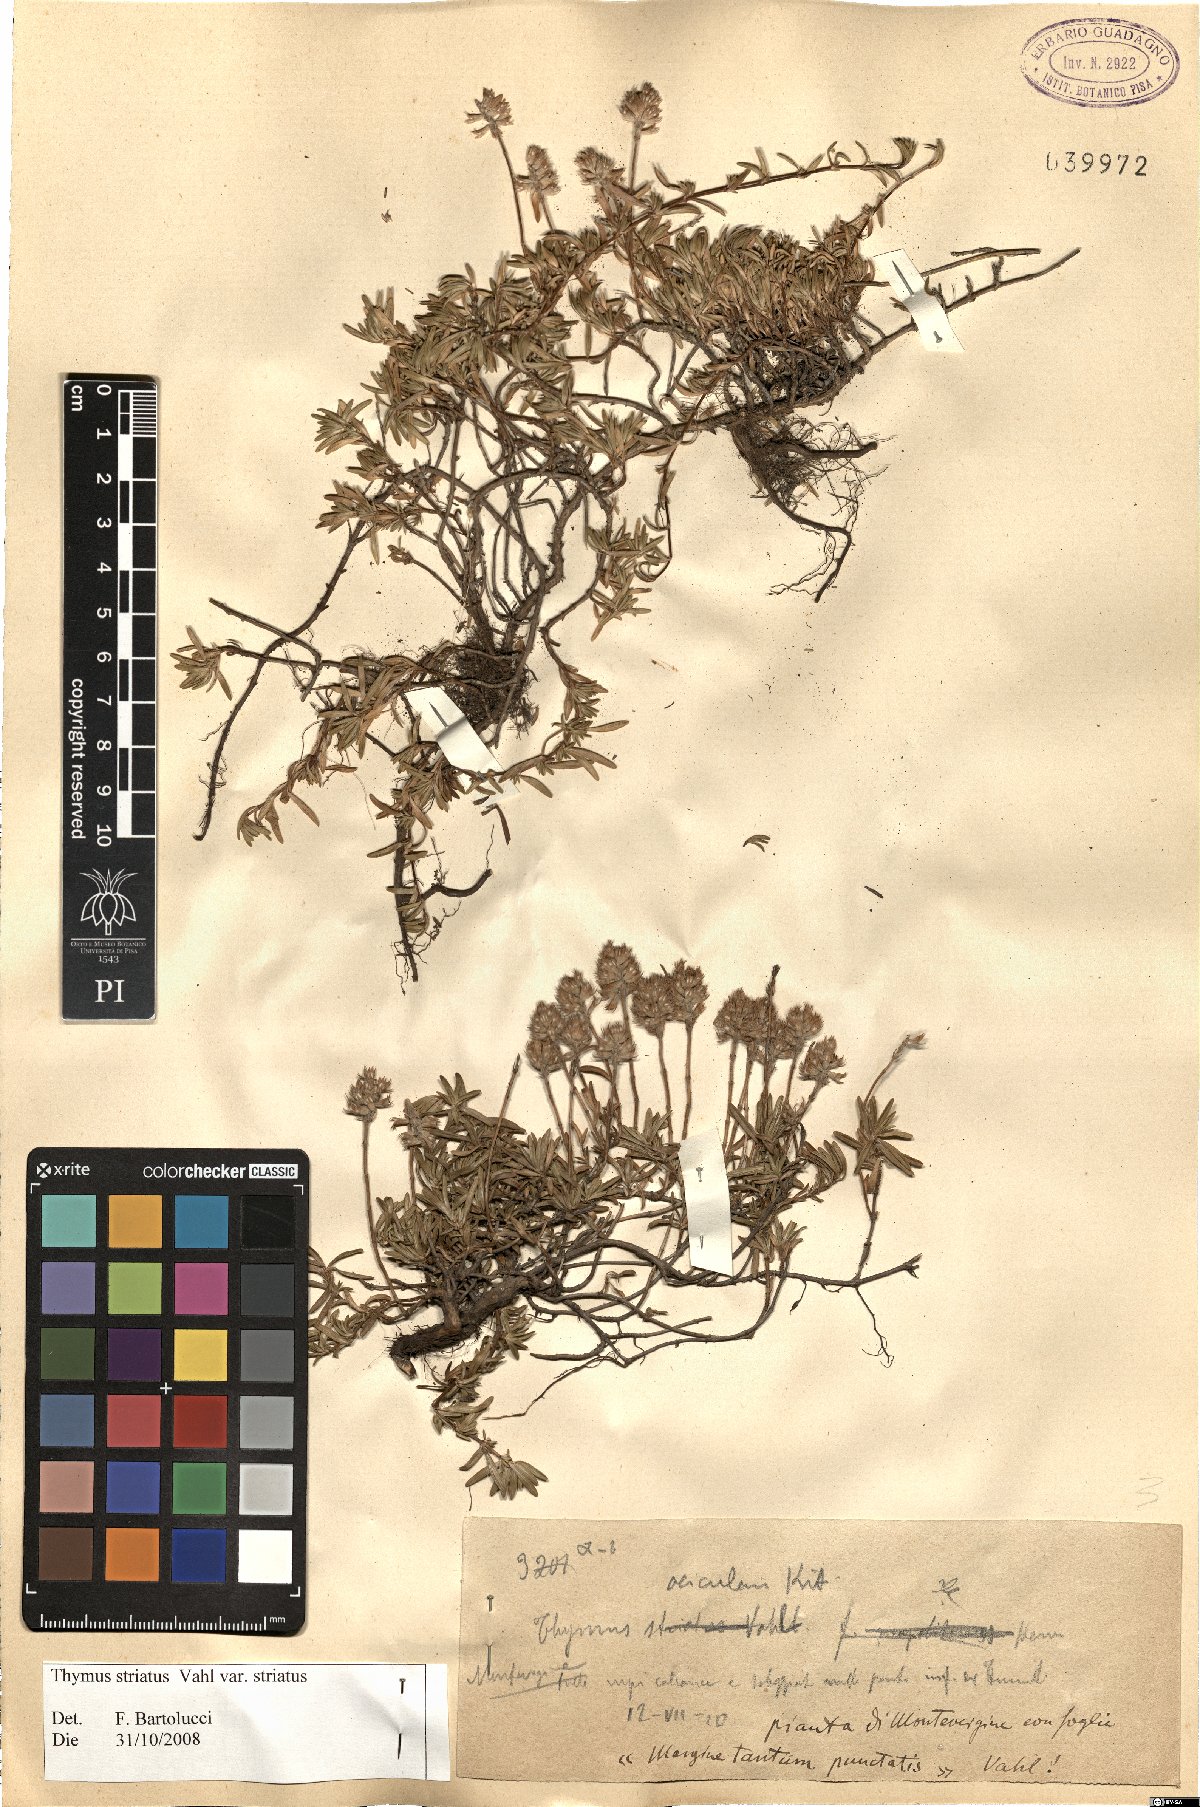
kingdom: Plantae
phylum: Tracheophyta
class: Magnoliopsida
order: Lamiales
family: Lamiaceae
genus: Thymus
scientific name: Thymus striatus
